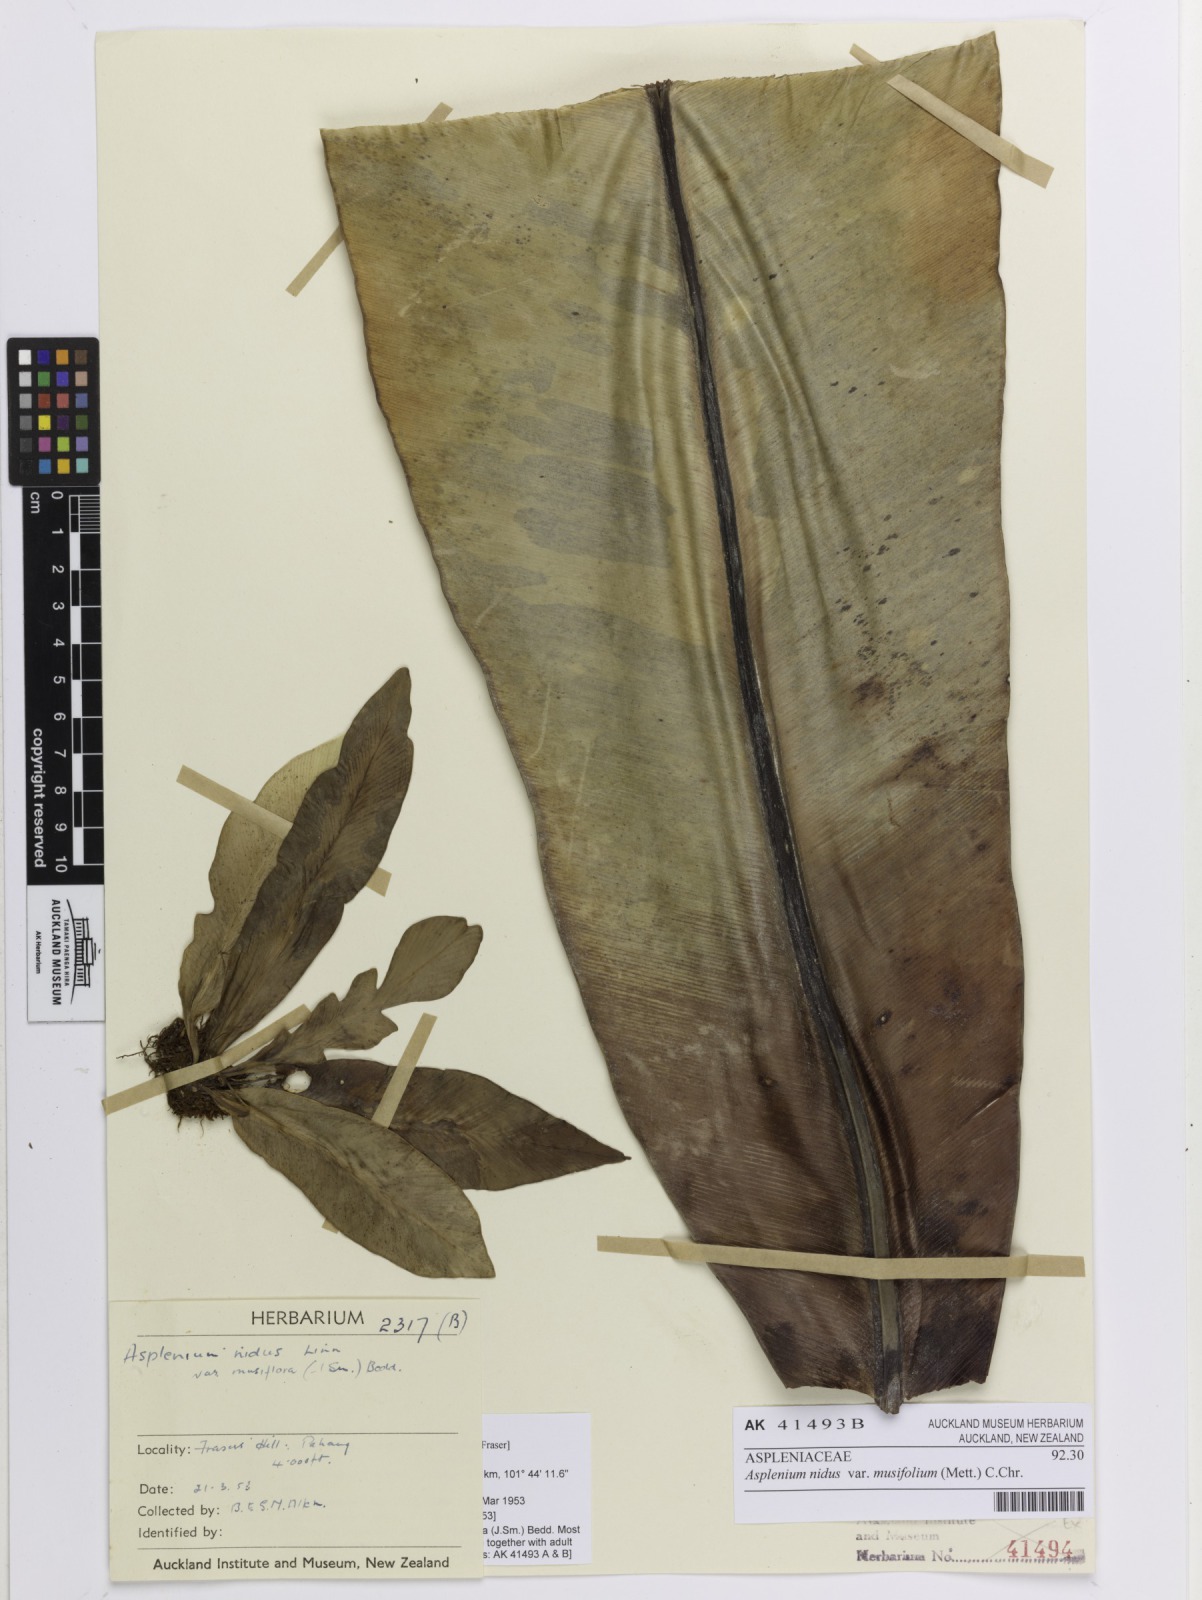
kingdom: Plantae
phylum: Tracheophyta
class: Polypodiopsida
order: Polypodiales
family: Aspleniaceae
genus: Asplenium
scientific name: Asplenium musifolium
